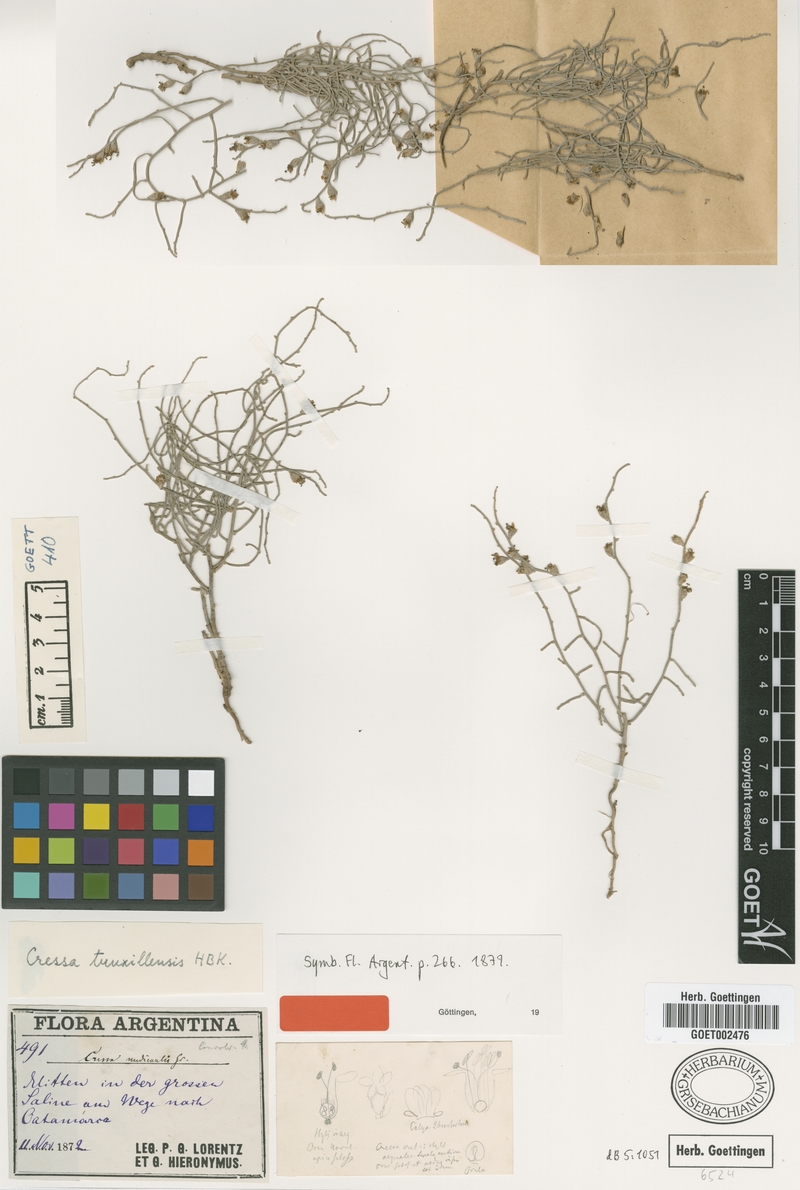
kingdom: Plantae
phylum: Tracheophyta
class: Magnoliopsida
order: Solanales
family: Convolvulaceae
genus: Cressa
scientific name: Cressa truxillensis
